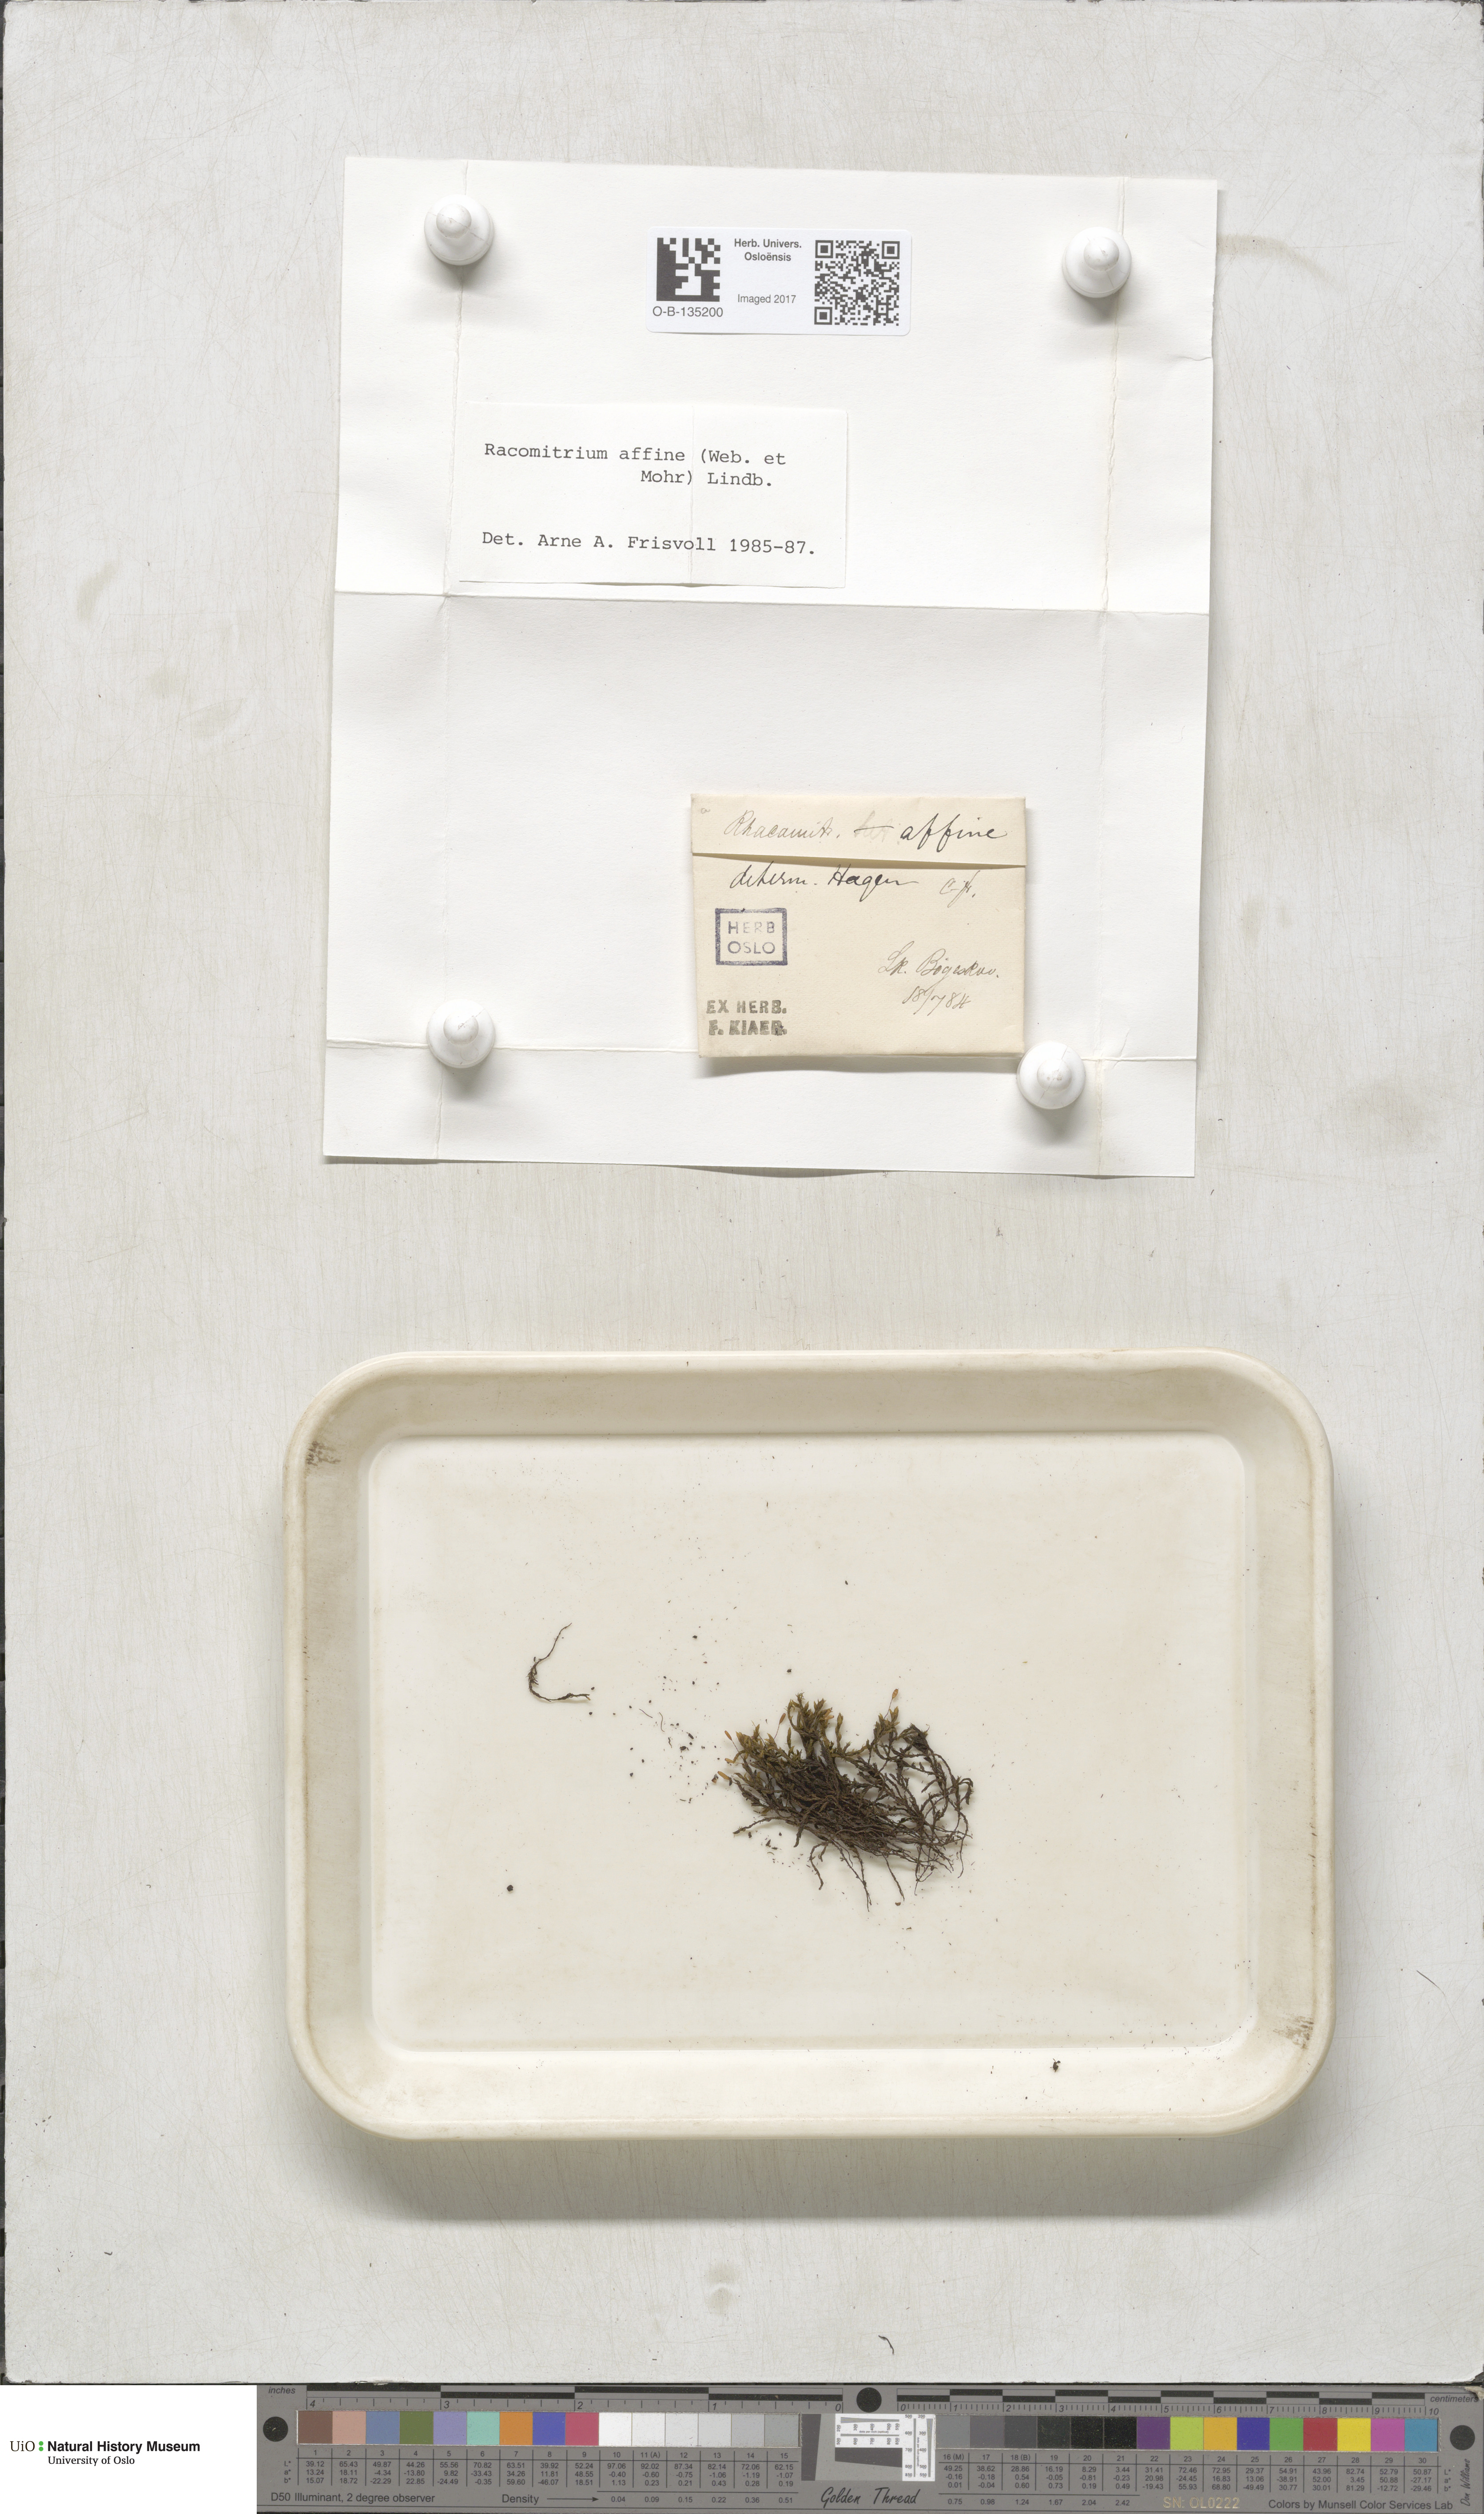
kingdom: Plantae
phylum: Bryophyta
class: Bryopsida
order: Grimmiales
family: Grimmiaceae
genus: Bucklandiella
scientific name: Bucklandiella affinis
